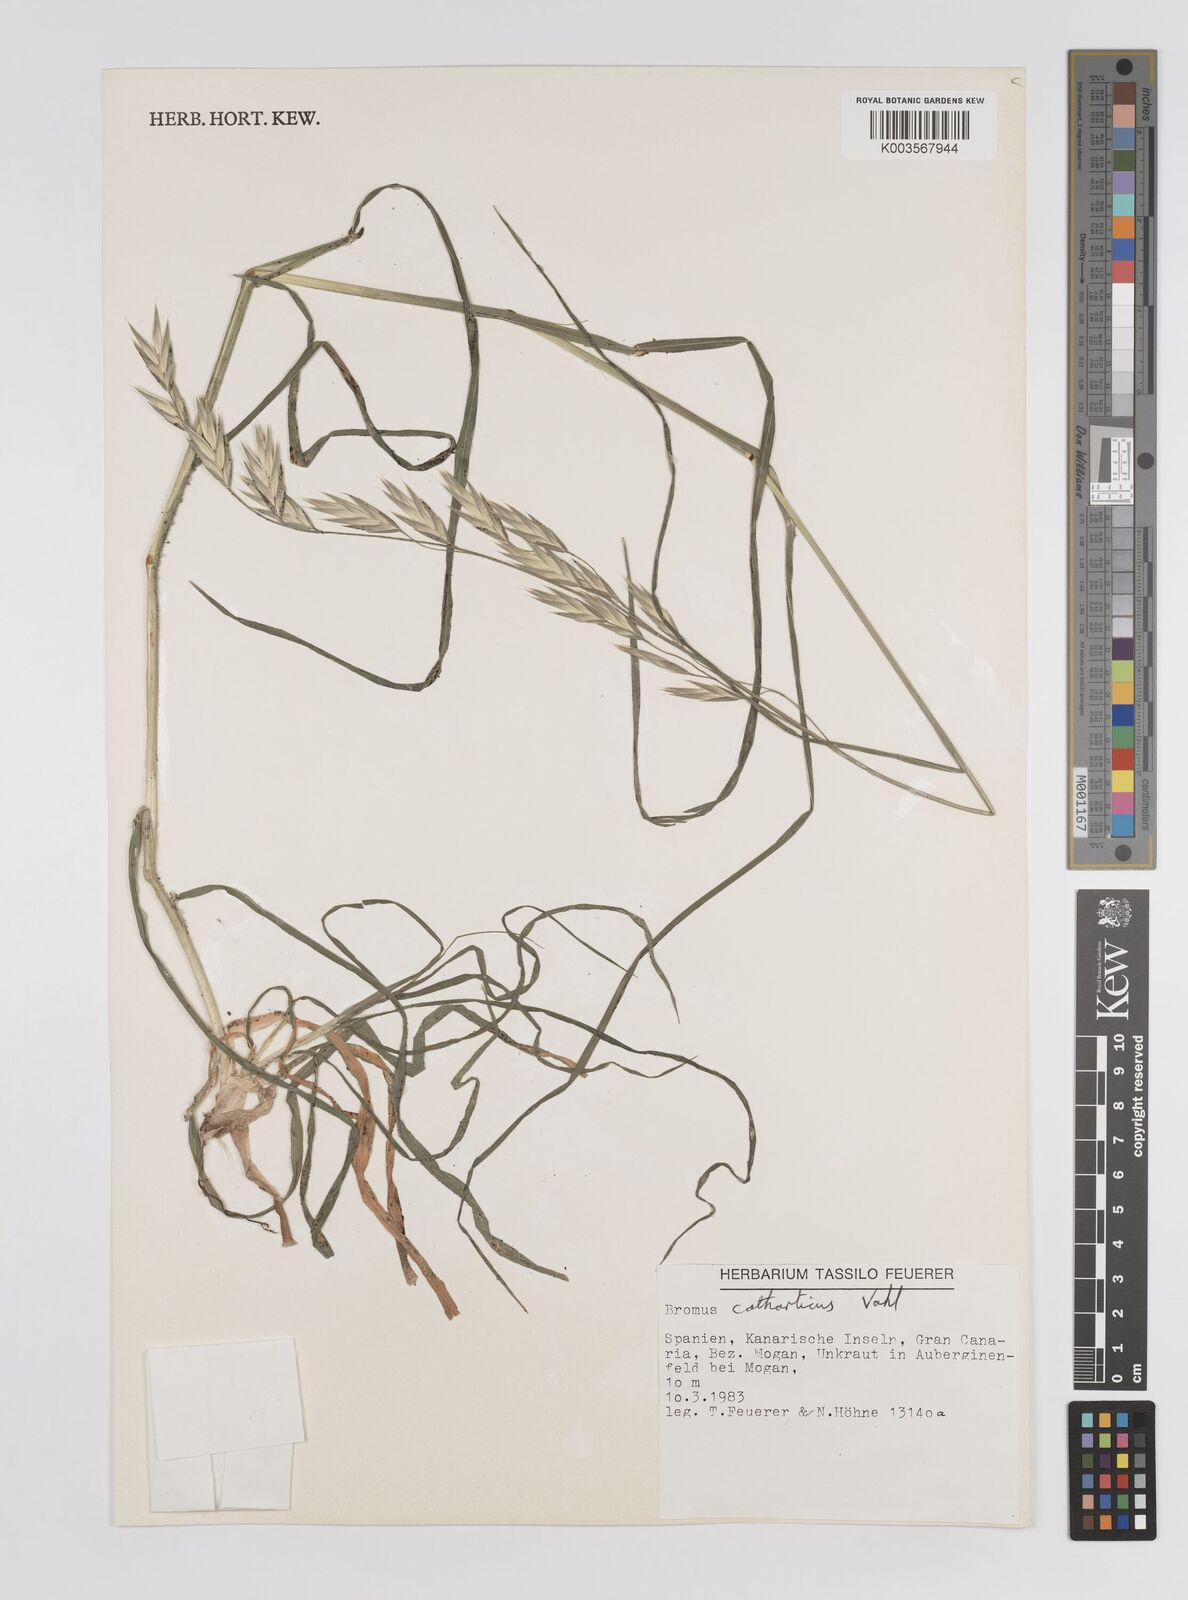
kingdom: Plantae
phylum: Tracheophyta
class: Liliopsida
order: Poales
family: Poaceae
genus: Bromus
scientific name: Bromus catharticus
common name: Rescuegrass
